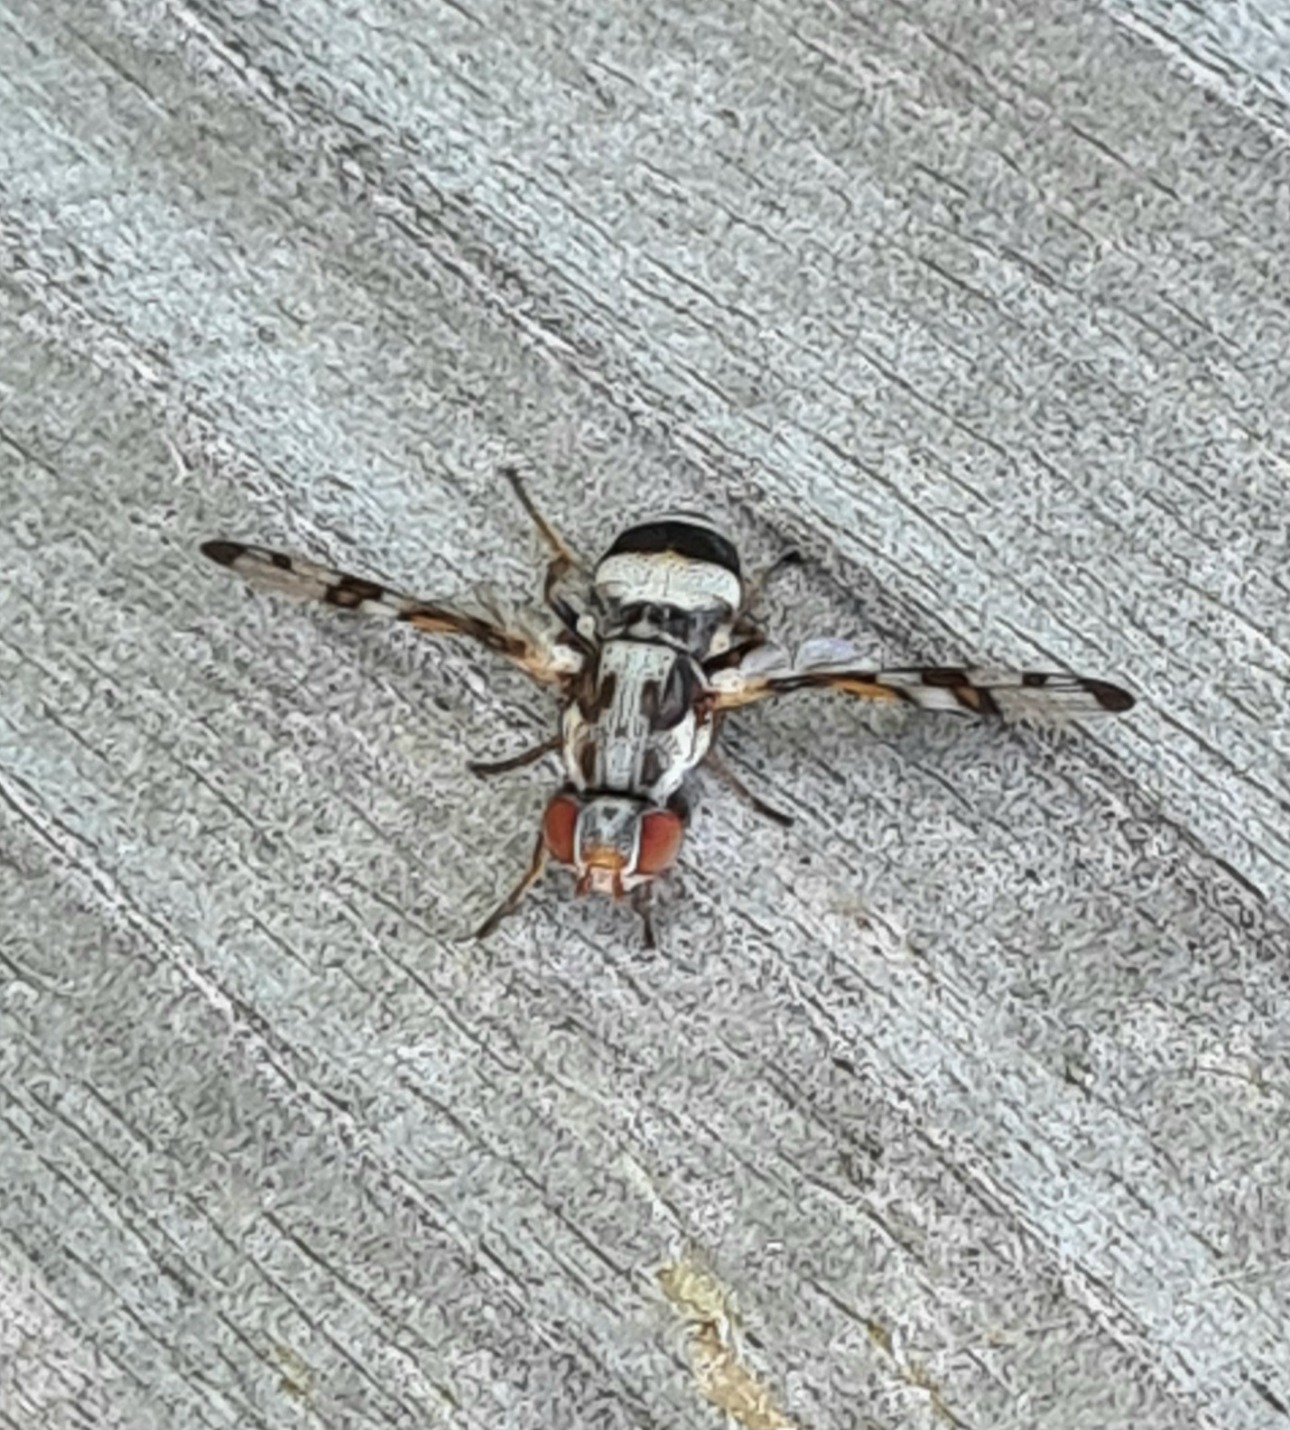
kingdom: Animalia
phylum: Arthropoda
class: Insecta
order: Diptera
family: Ulidiidae
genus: Myennis
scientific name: Myennis octopunctata
